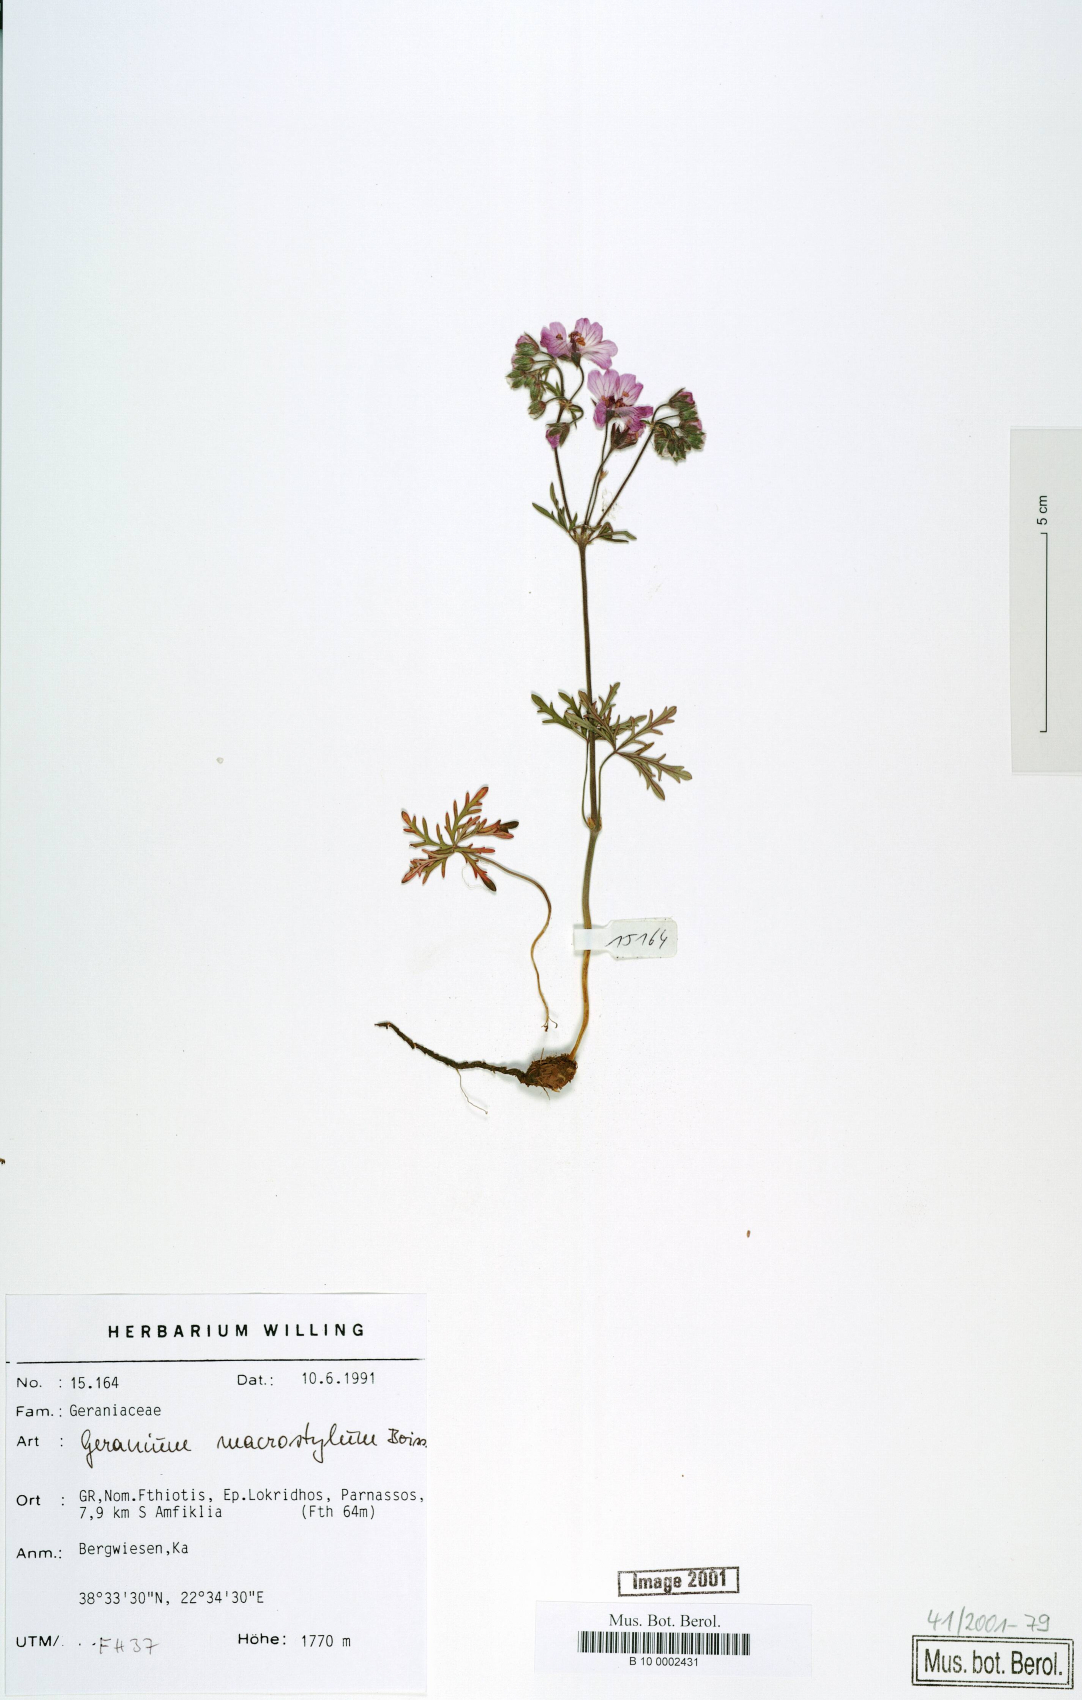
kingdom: Plantae
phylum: Tracheophyta
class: Magnoliopsida
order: Geraniales
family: Geraniaceae
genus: Geranium
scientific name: Geranium macrostylum
